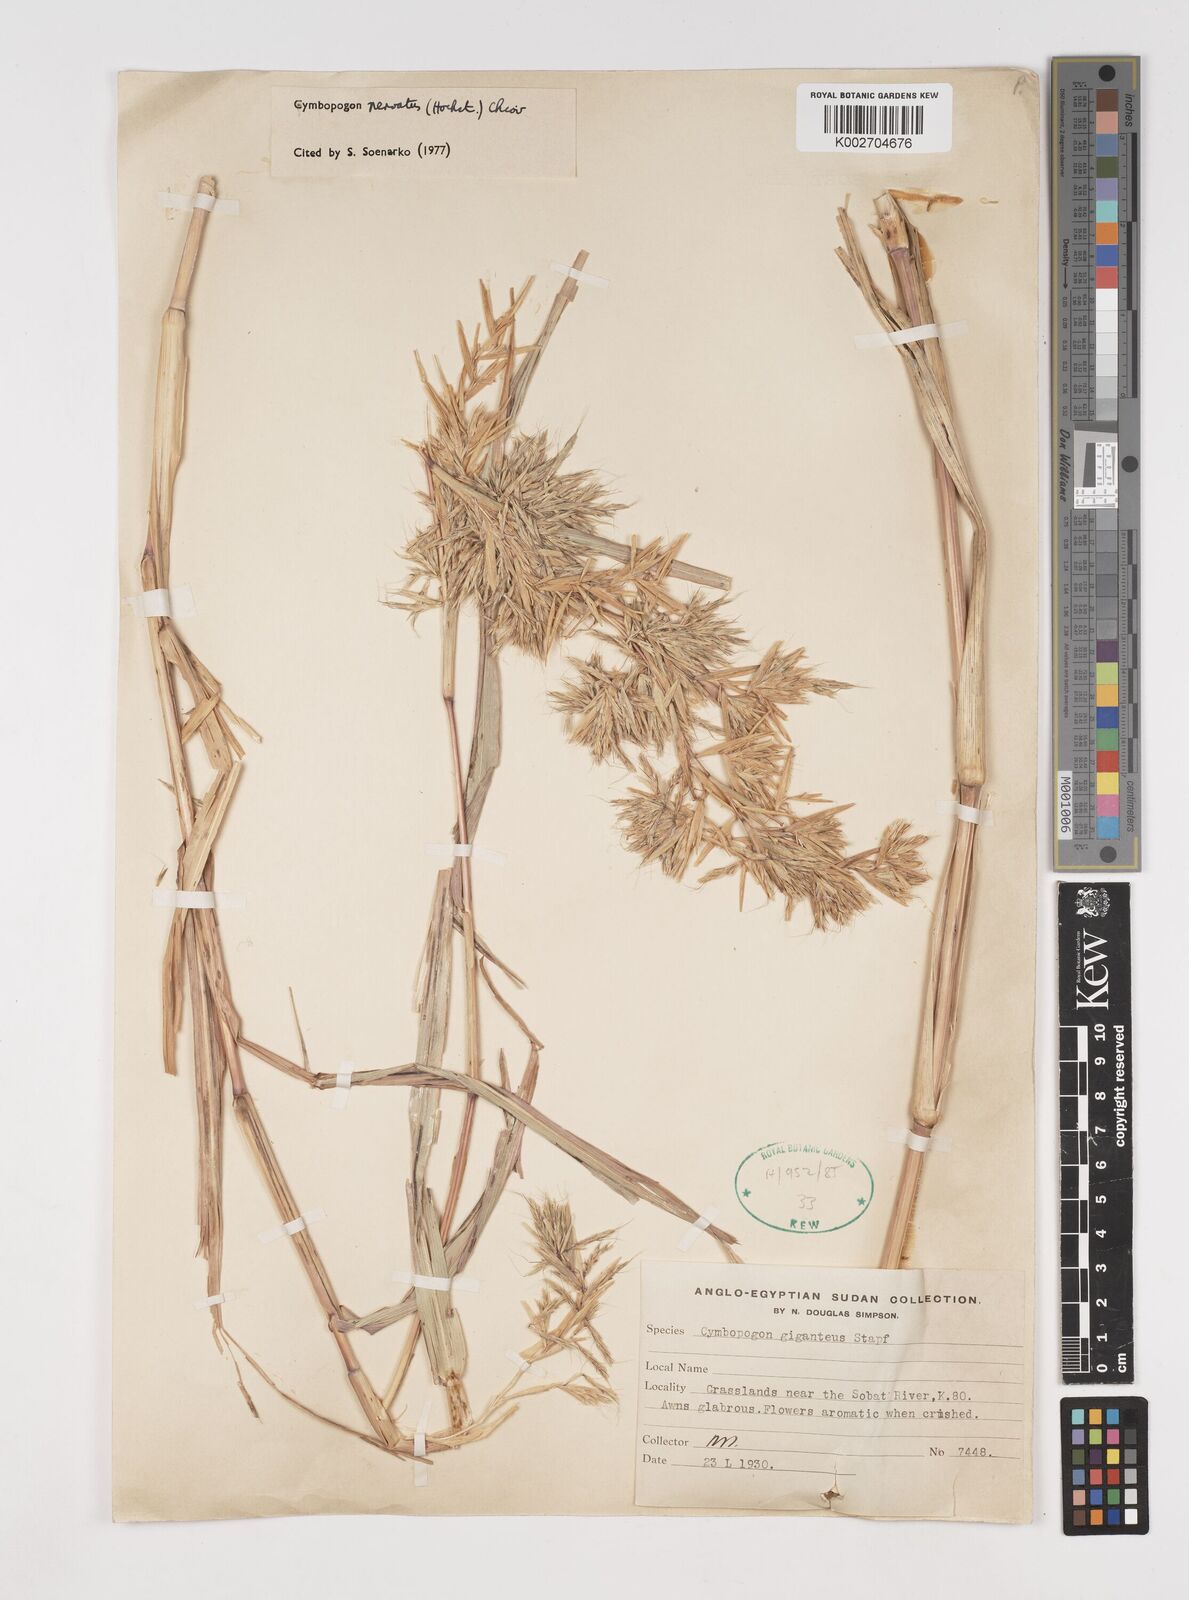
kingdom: Plantae
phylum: Tracheophyta
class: Liliopsida
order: Poales
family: Poaceae
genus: Cymbopogon
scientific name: Cymbopogon giganteus
